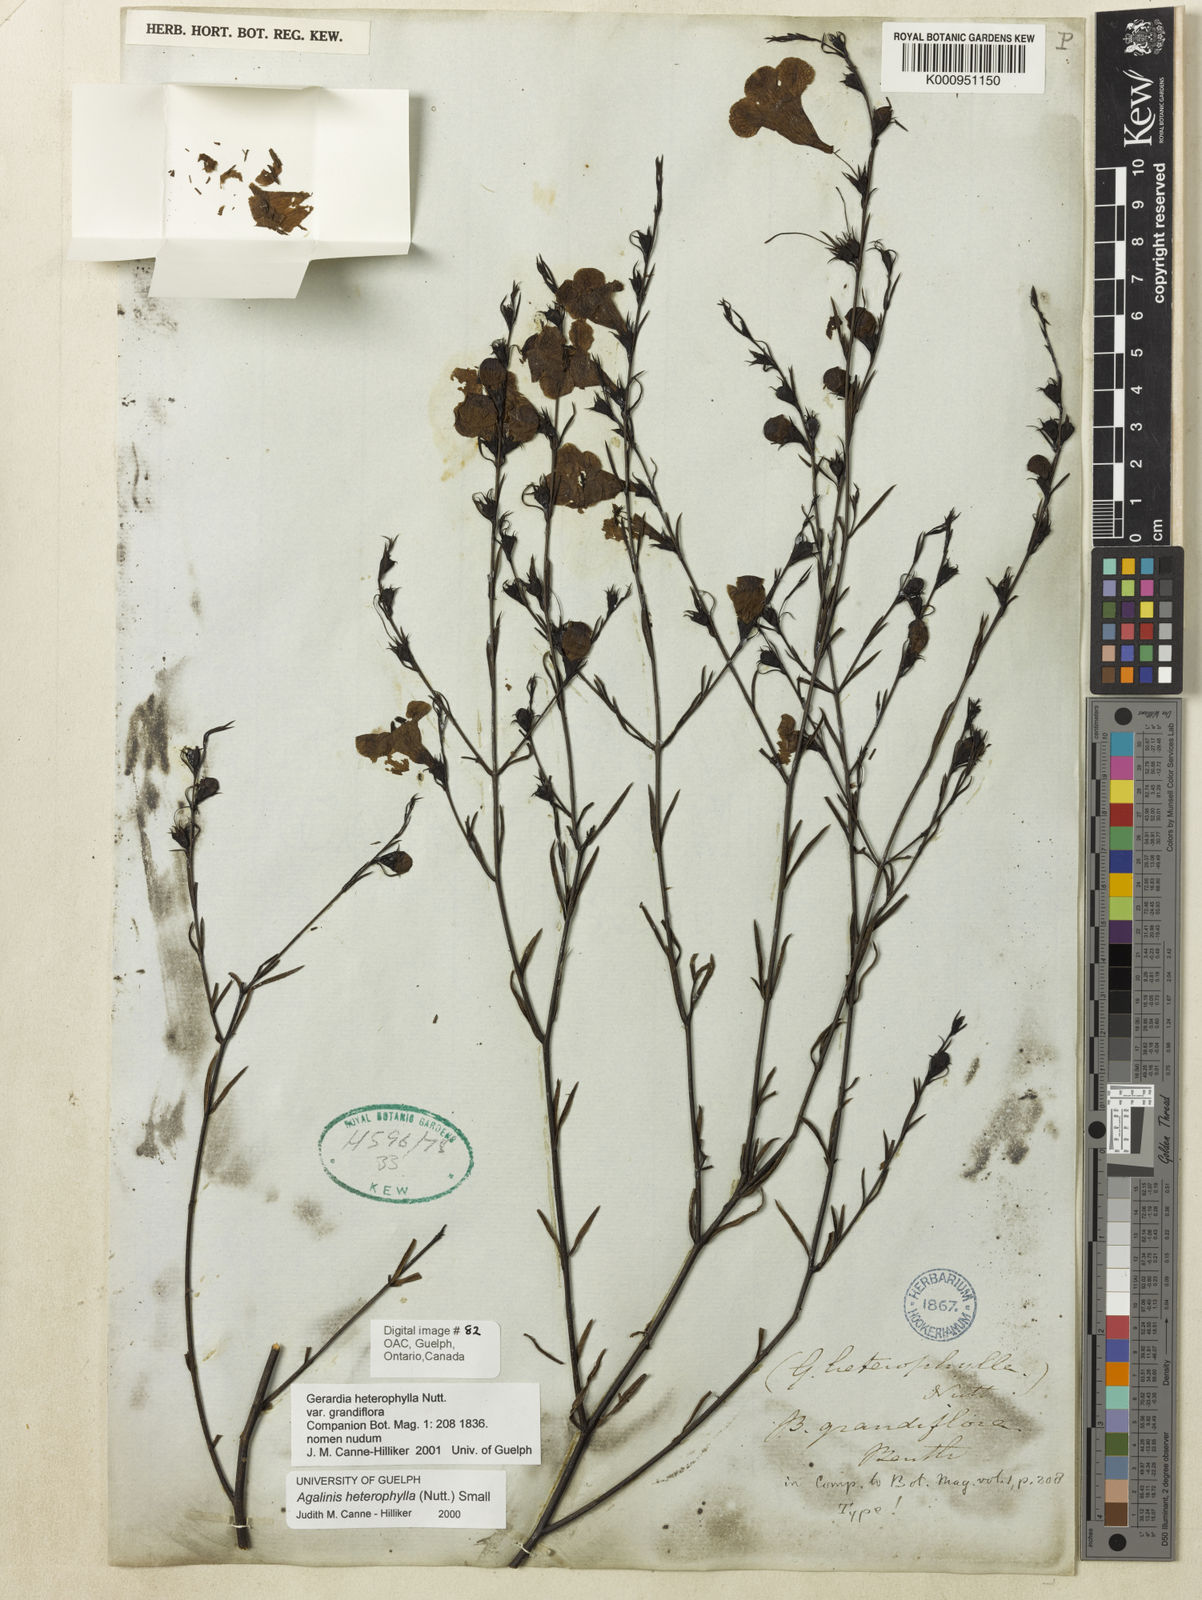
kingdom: Plantae
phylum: Tracheophyta
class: Magnoliopsida
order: Lamiales
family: Orobanchaceae
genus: Agalinis
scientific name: Agalinis heterophylla
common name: Prairie agalinis
